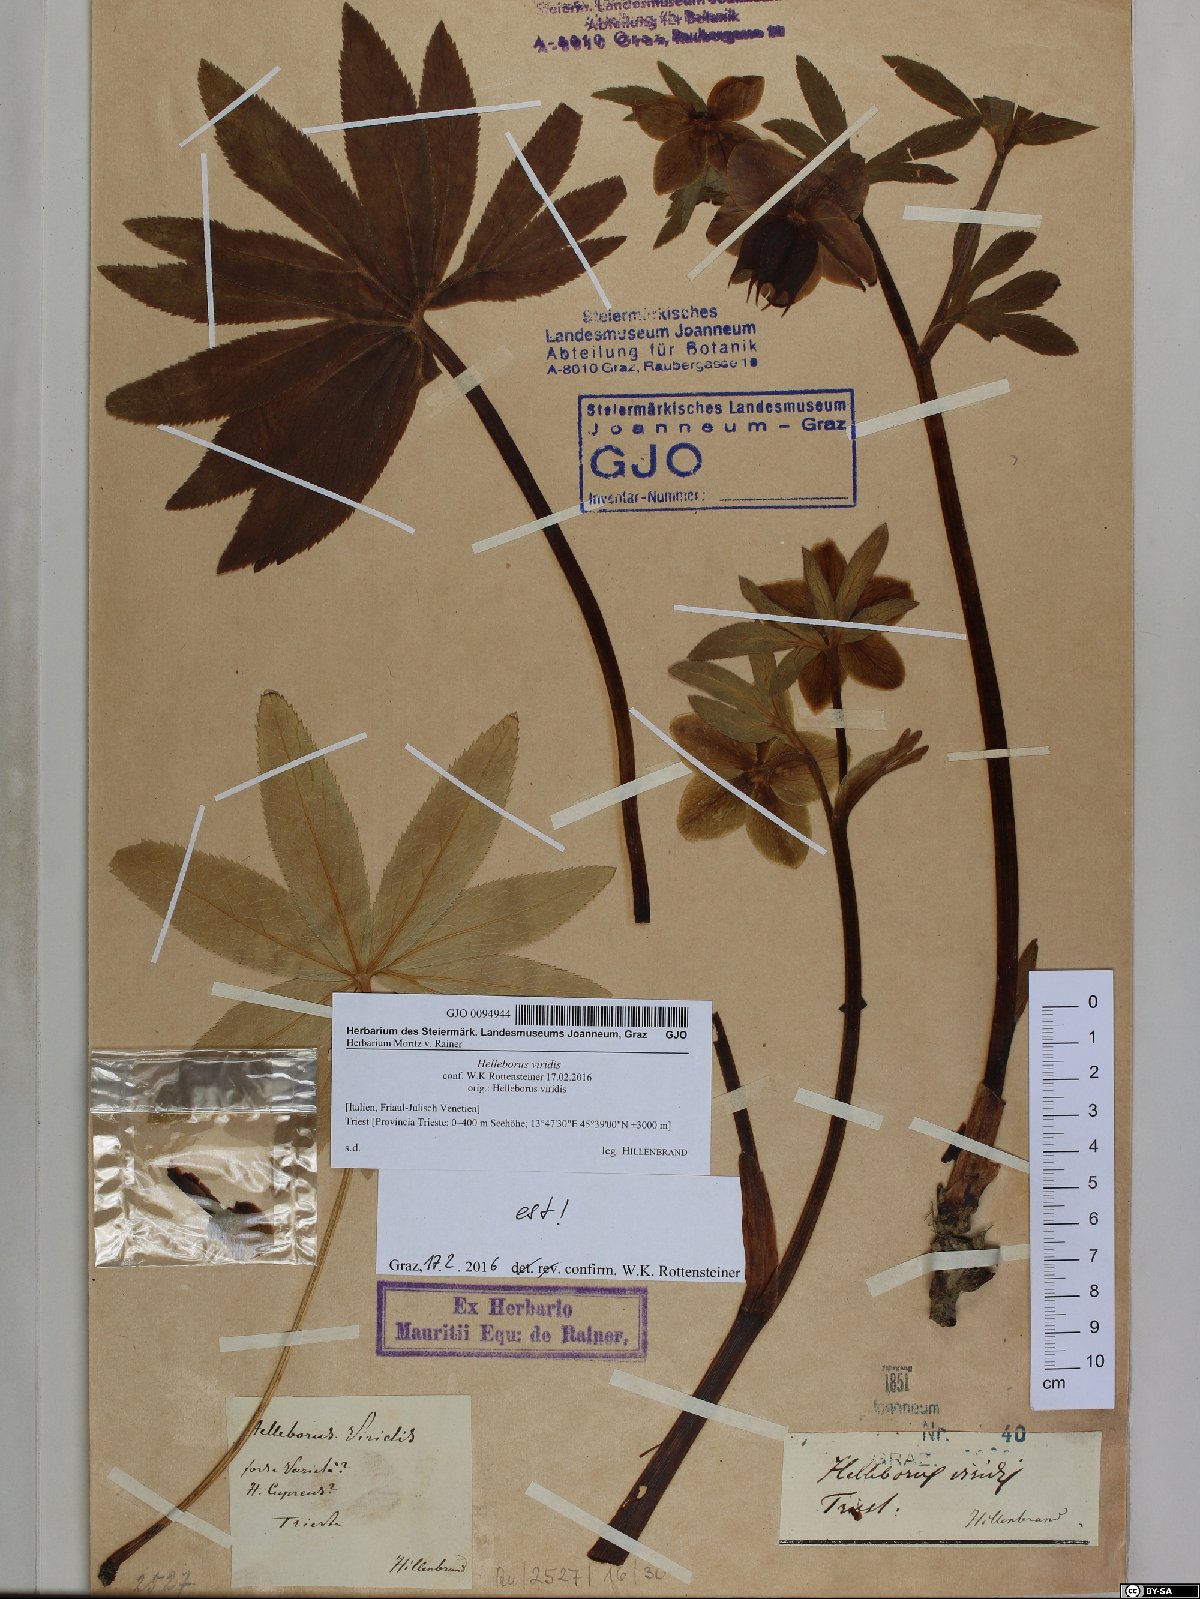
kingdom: Plantae
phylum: Tracheophyta
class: Magnoliopsida
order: Ranunculales
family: Ranunculaceae
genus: Helleborus
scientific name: Helleborus viridis
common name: Green hellebore
